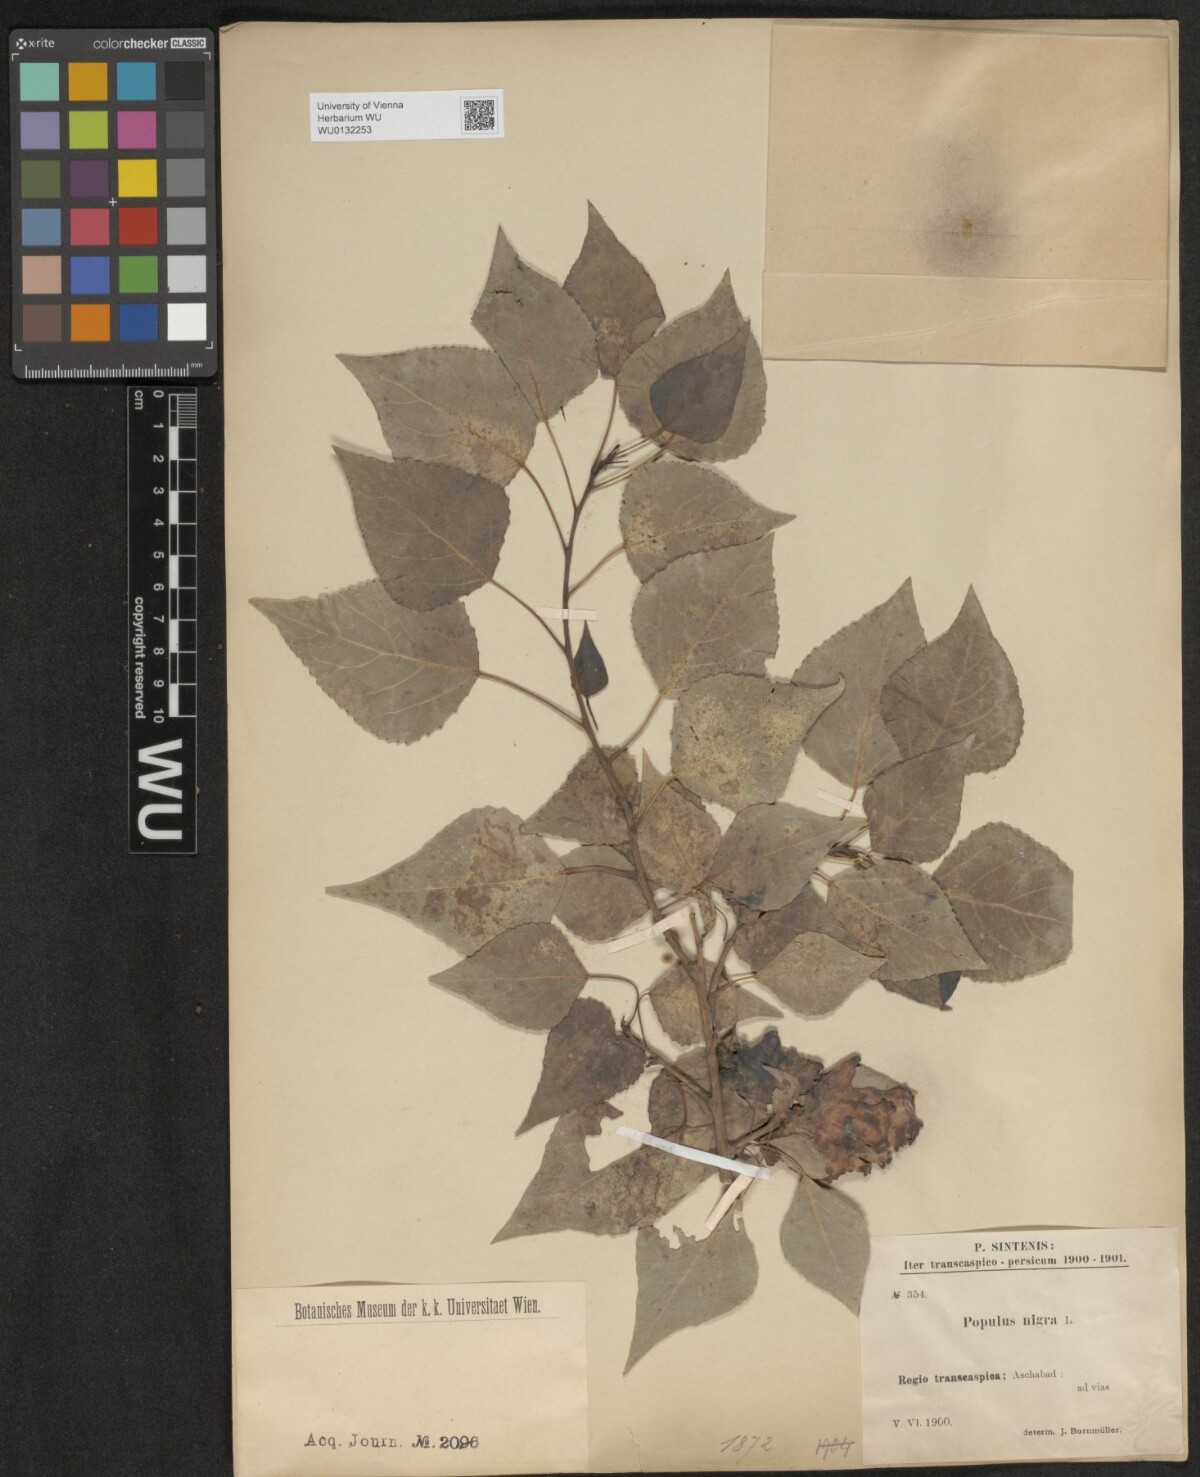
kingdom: Plantae
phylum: Tracheophyta
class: Magnoliopsida
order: Malpighiales
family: Salicaceae
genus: Populus
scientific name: Populus nigra
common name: Black poplar
